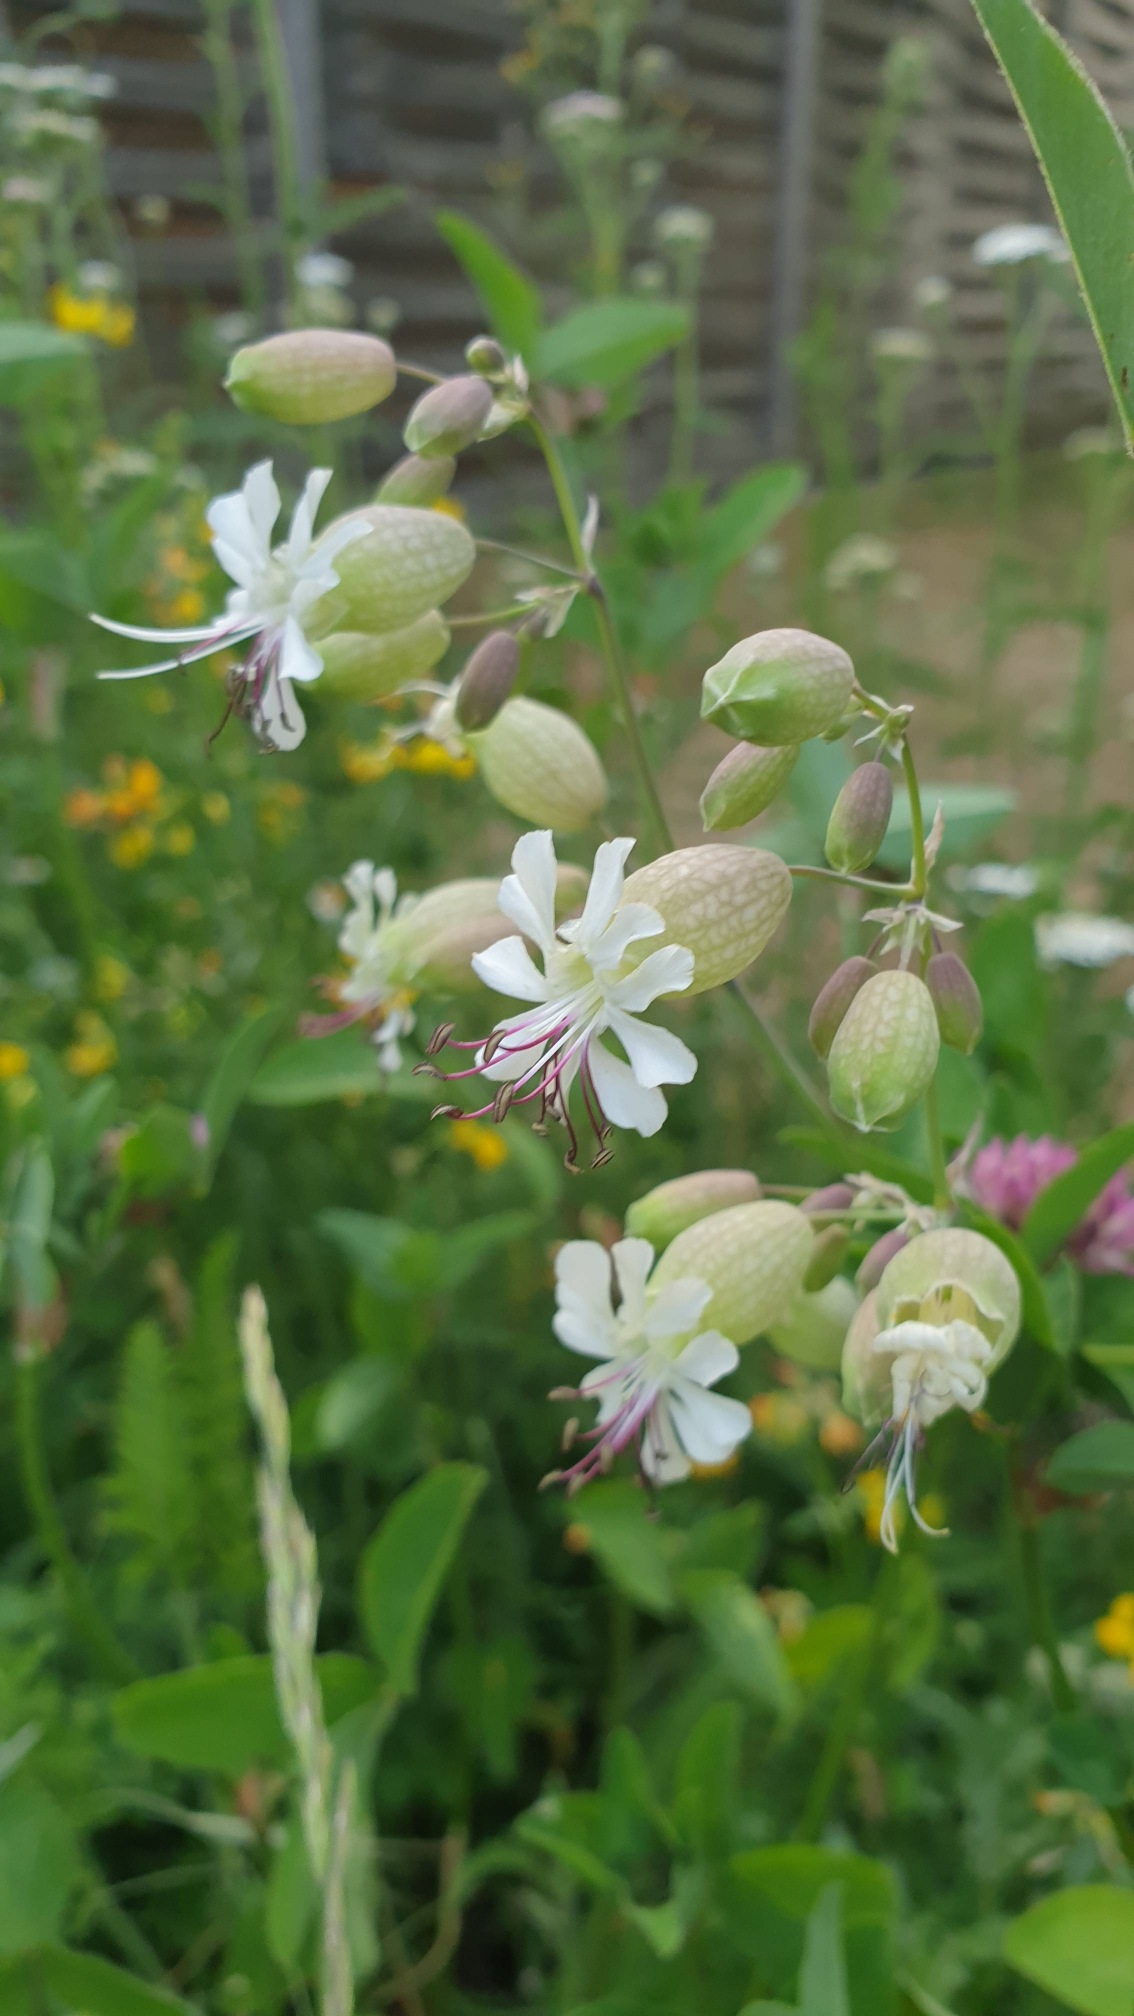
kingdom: Plantae
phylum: Tracheophyta
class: Magnoliopsida
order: Caryophyllales
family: Caryophyllaceae
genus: Silene
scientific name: Silene vulgaris
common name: Blæresmælde
